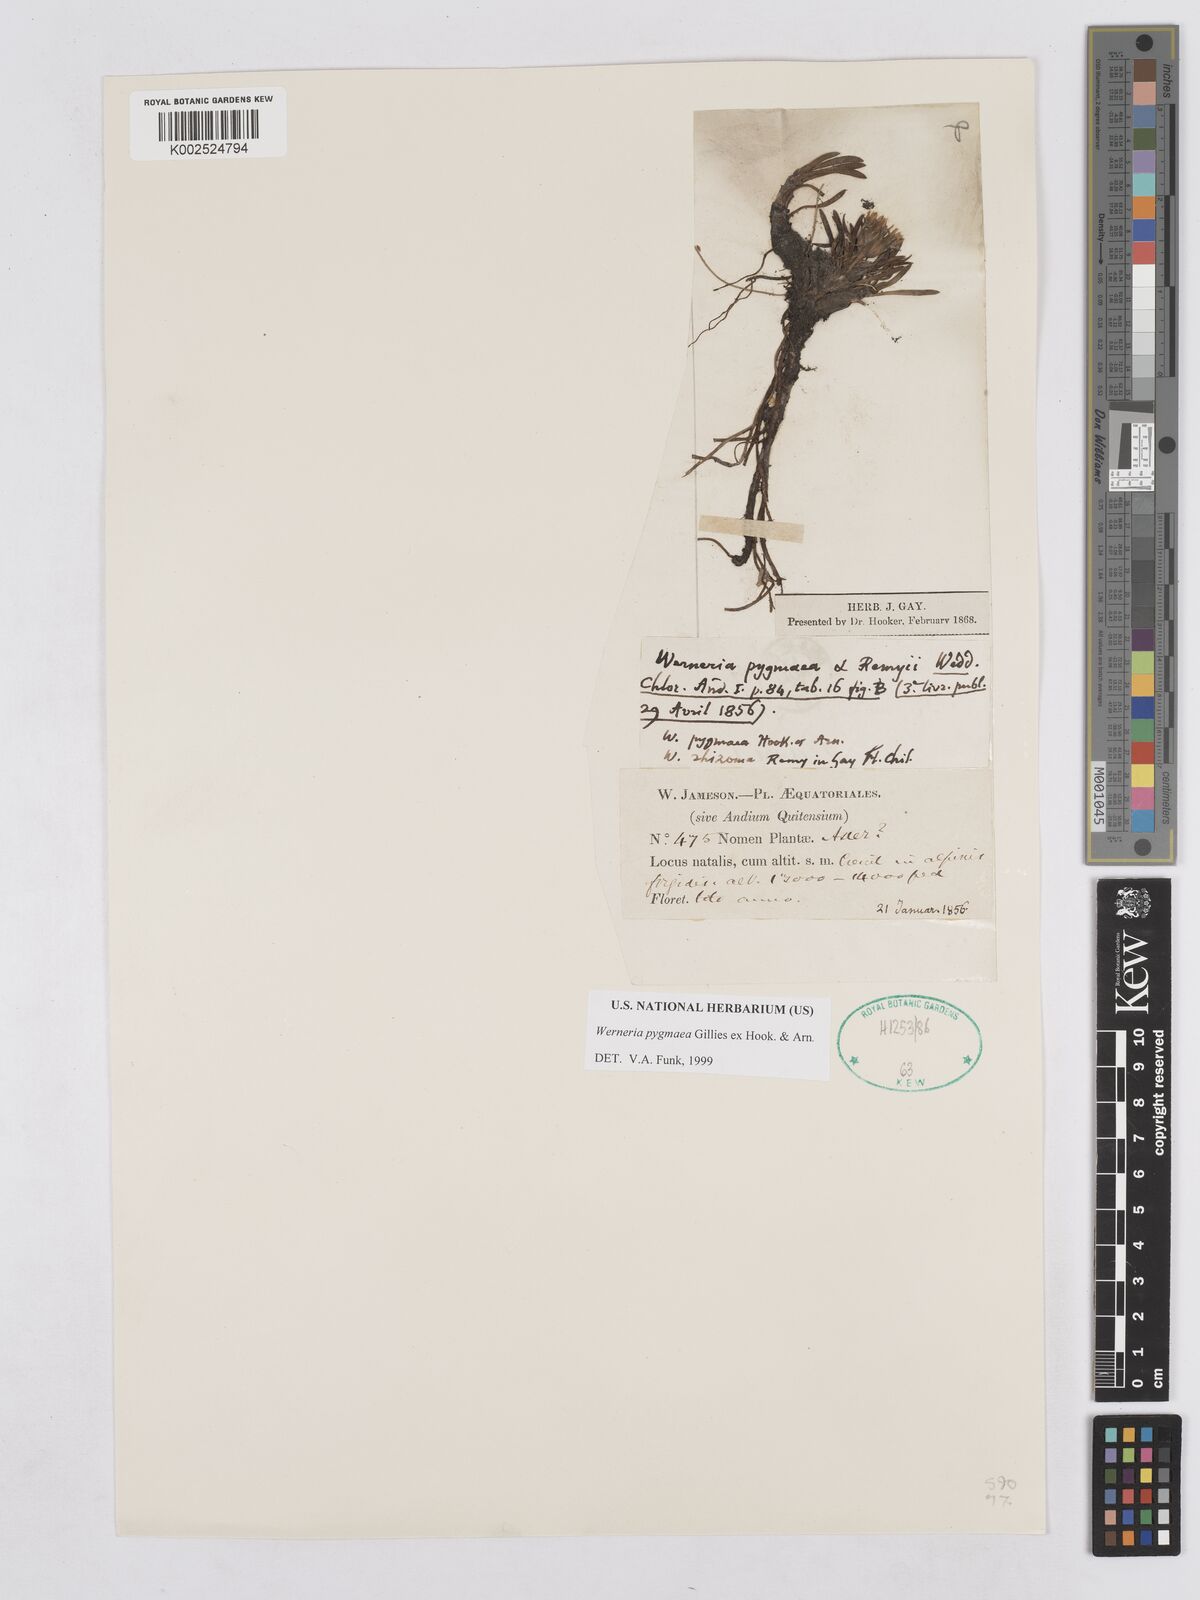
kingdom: Plantae
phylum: Tracheophyta
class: Magnoliopsida
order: Asterales
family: Asteraceae
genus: Rockhausenia
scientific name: Rockhausenia pygmaea
